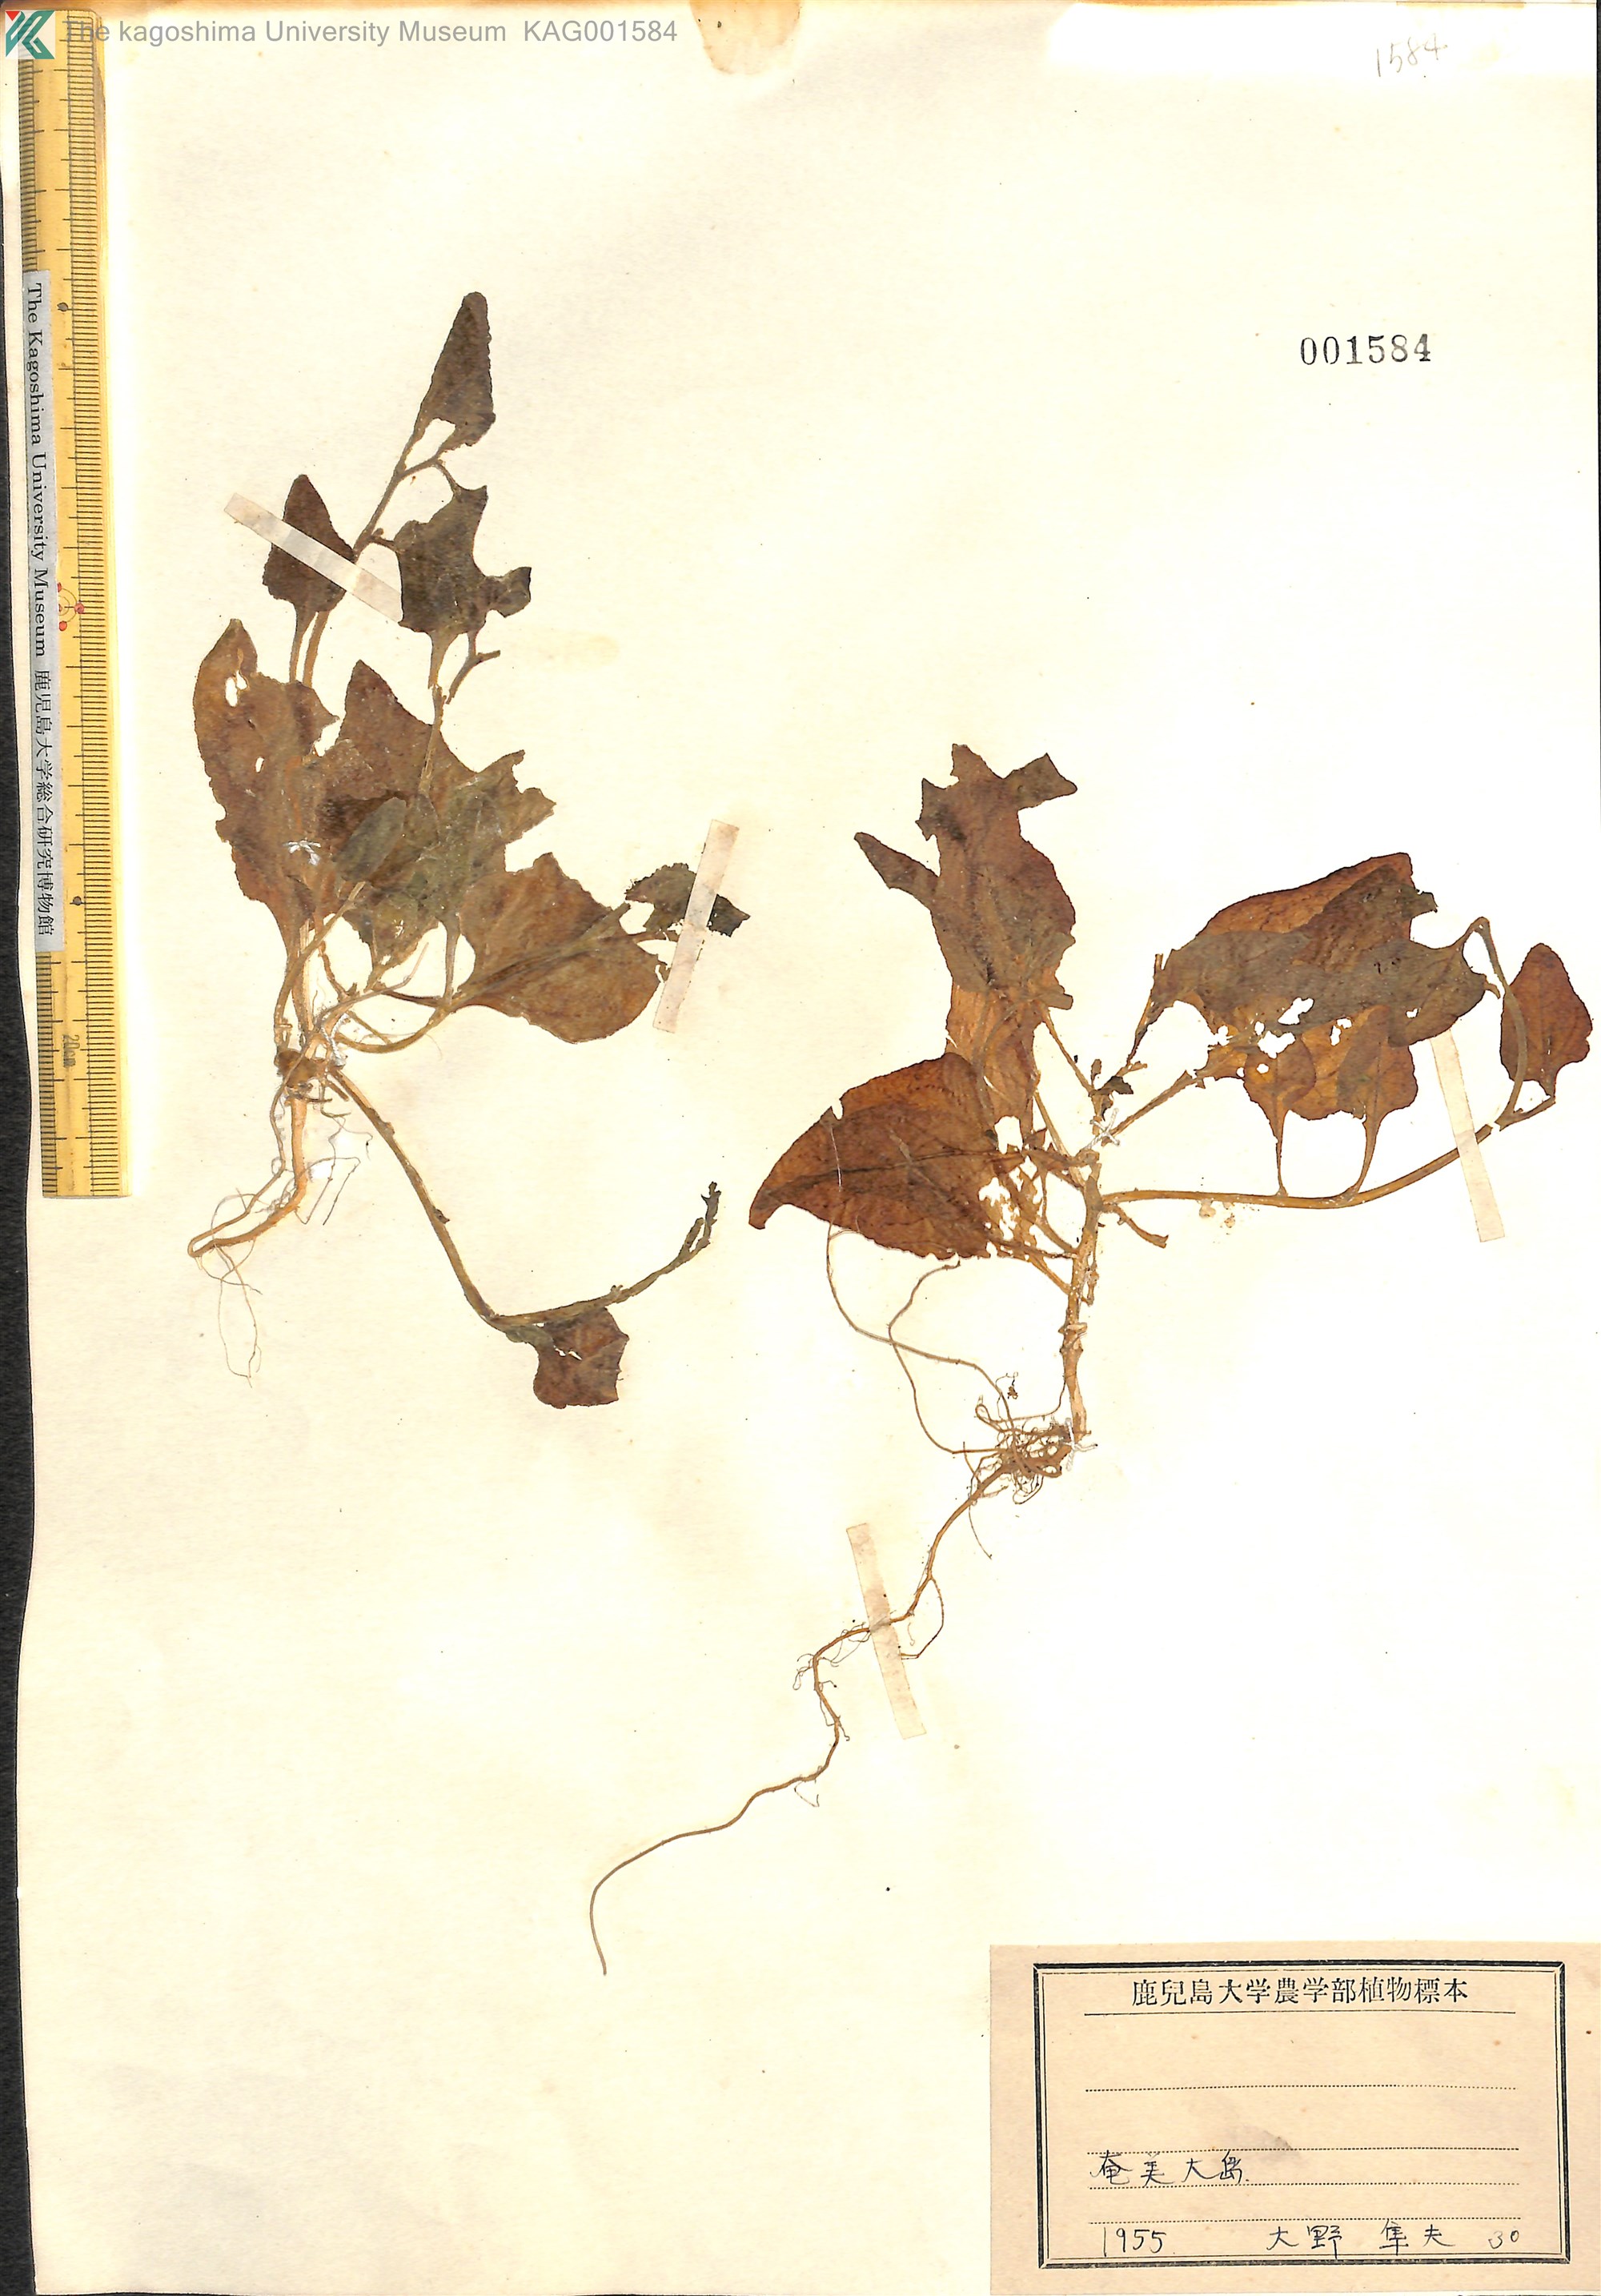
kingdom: Plantae
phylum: Tracheophyta
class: Magnoliopsida
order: Caryophyllales
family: Aizoaceae
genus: Tetragonia
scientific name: Tetragonia tetragonoides
